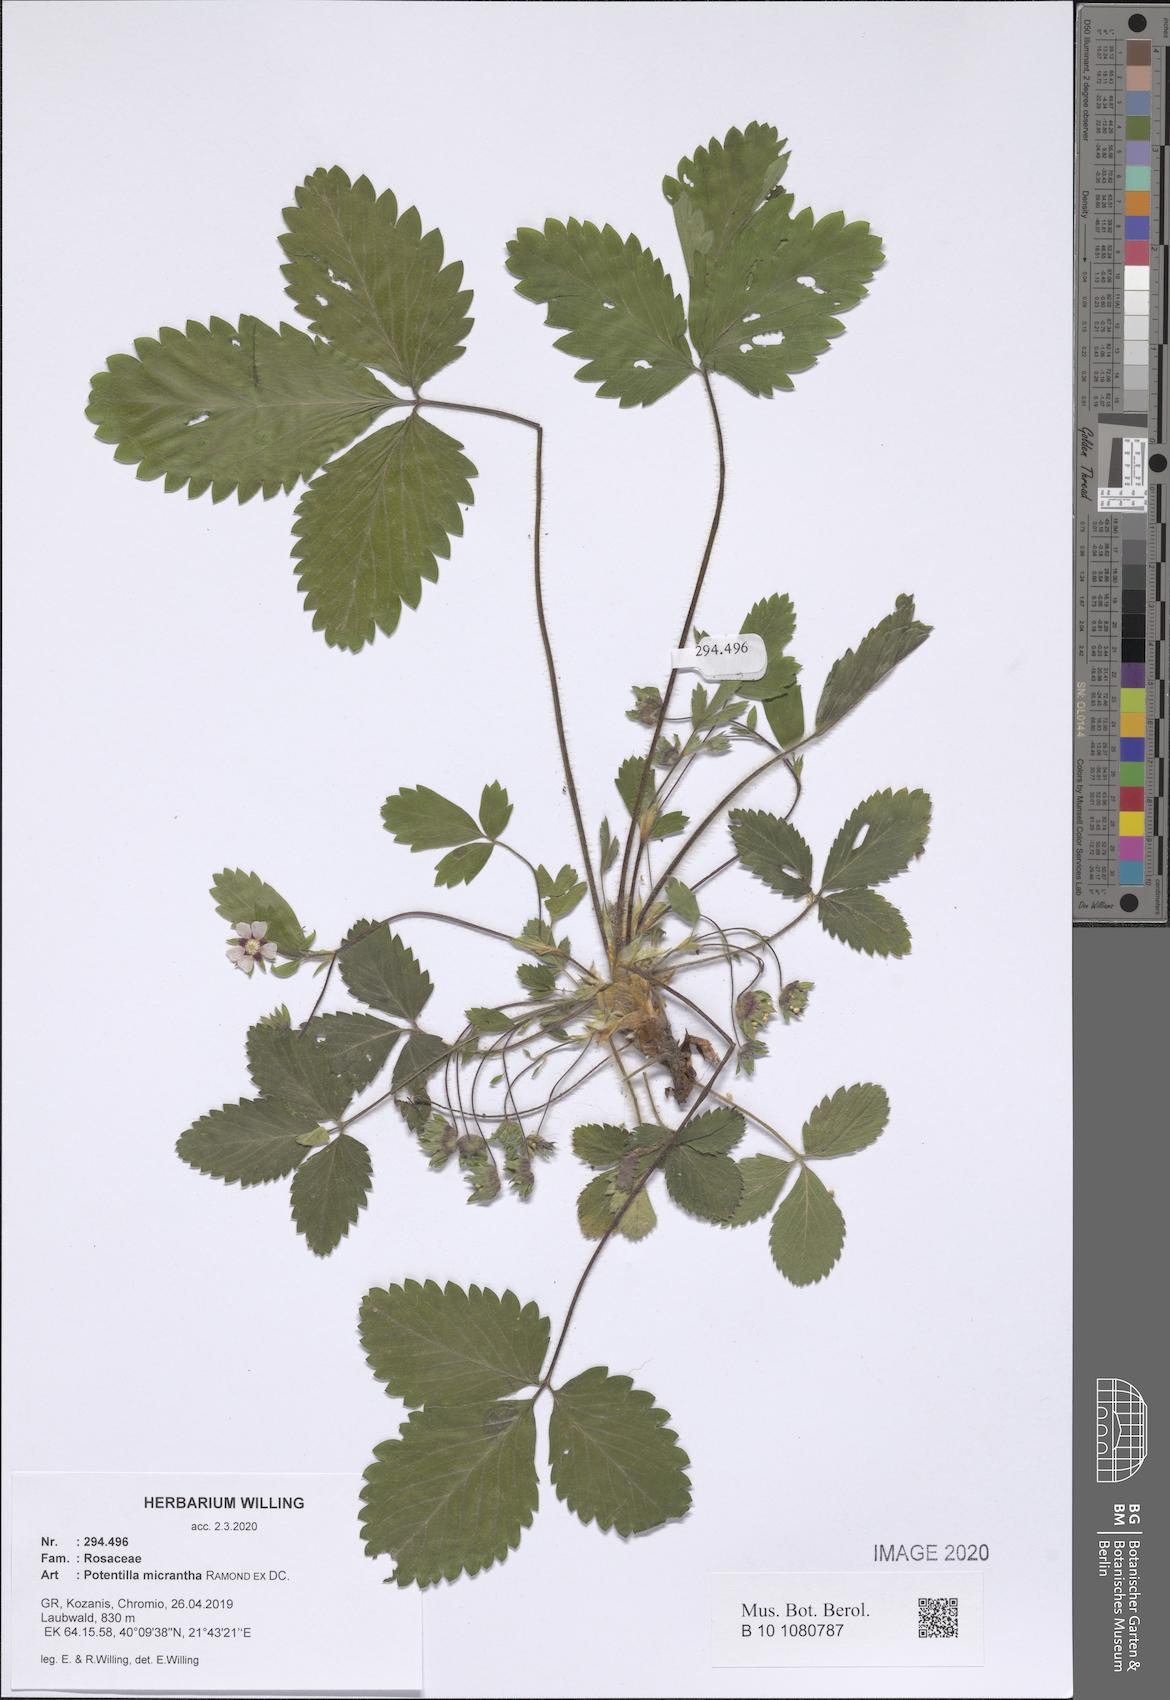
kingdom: Plantae
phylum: Tracheophyta
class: Magnoliopsida
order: Rosales
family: Rosaceae
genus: Potentilla
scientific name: Potentilla micrantha
